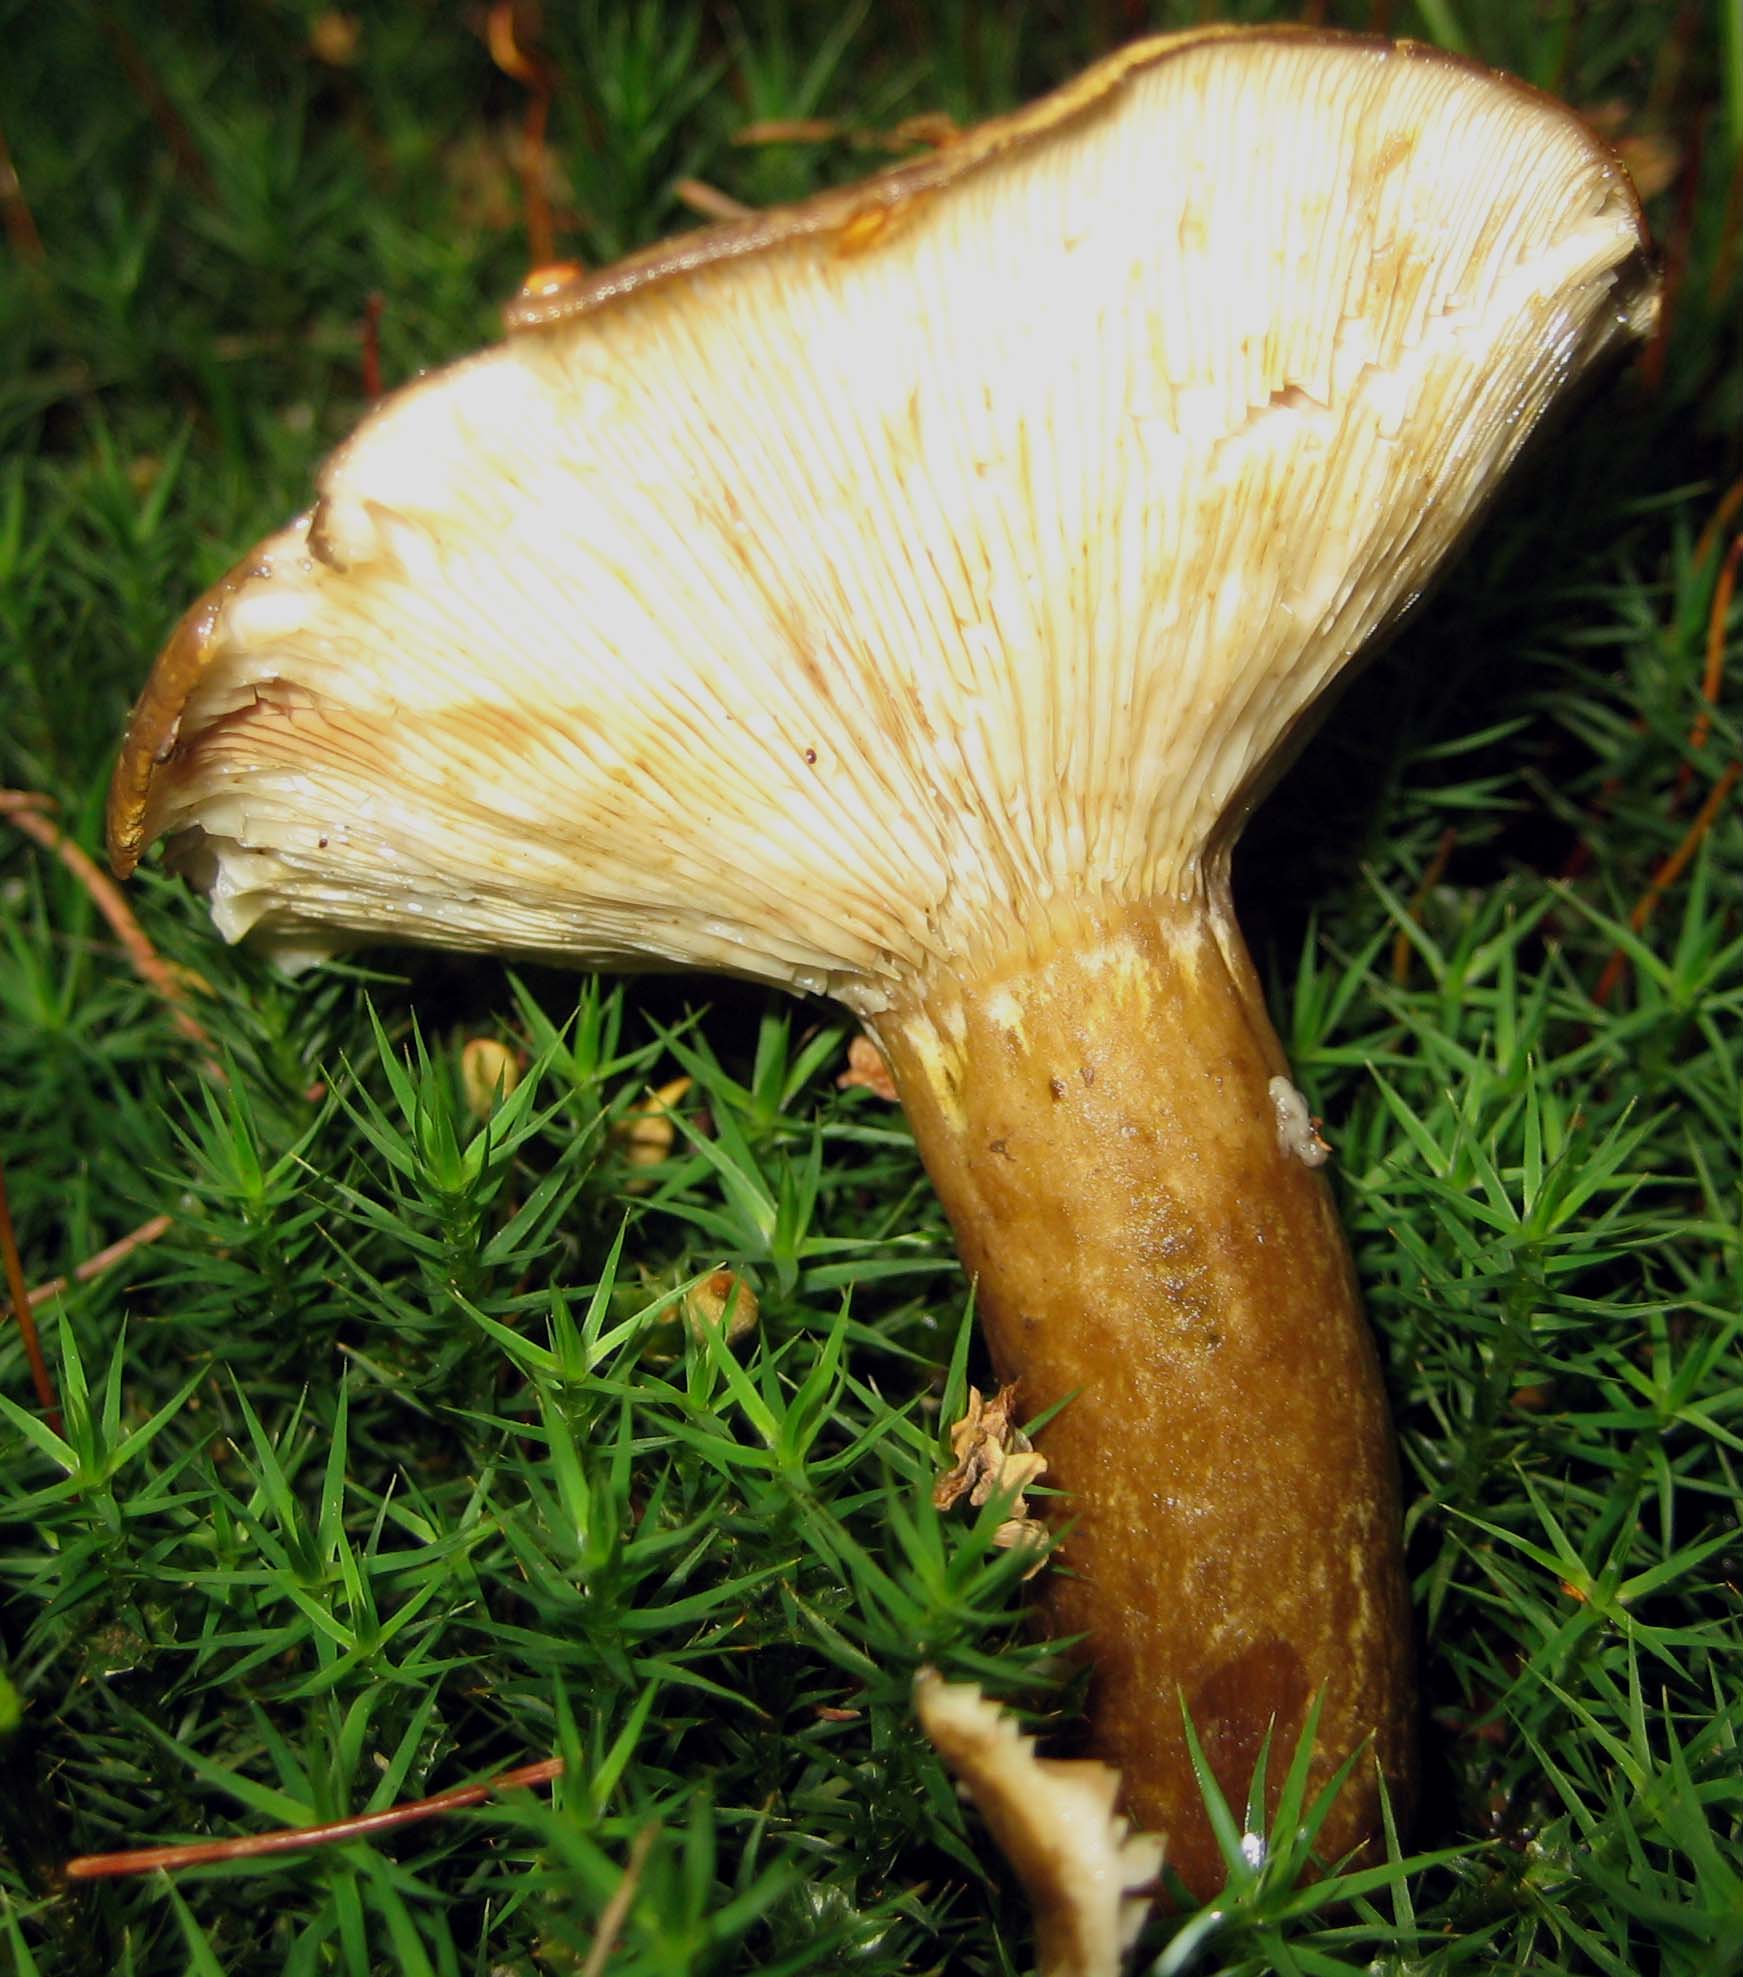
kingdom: Fungi
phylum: Basidiomycota
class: Agaricomycetes
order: Russulales
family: Russulaceae
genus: Lactarius
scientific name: Lactarius necator
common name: manddraber-mælkehat
